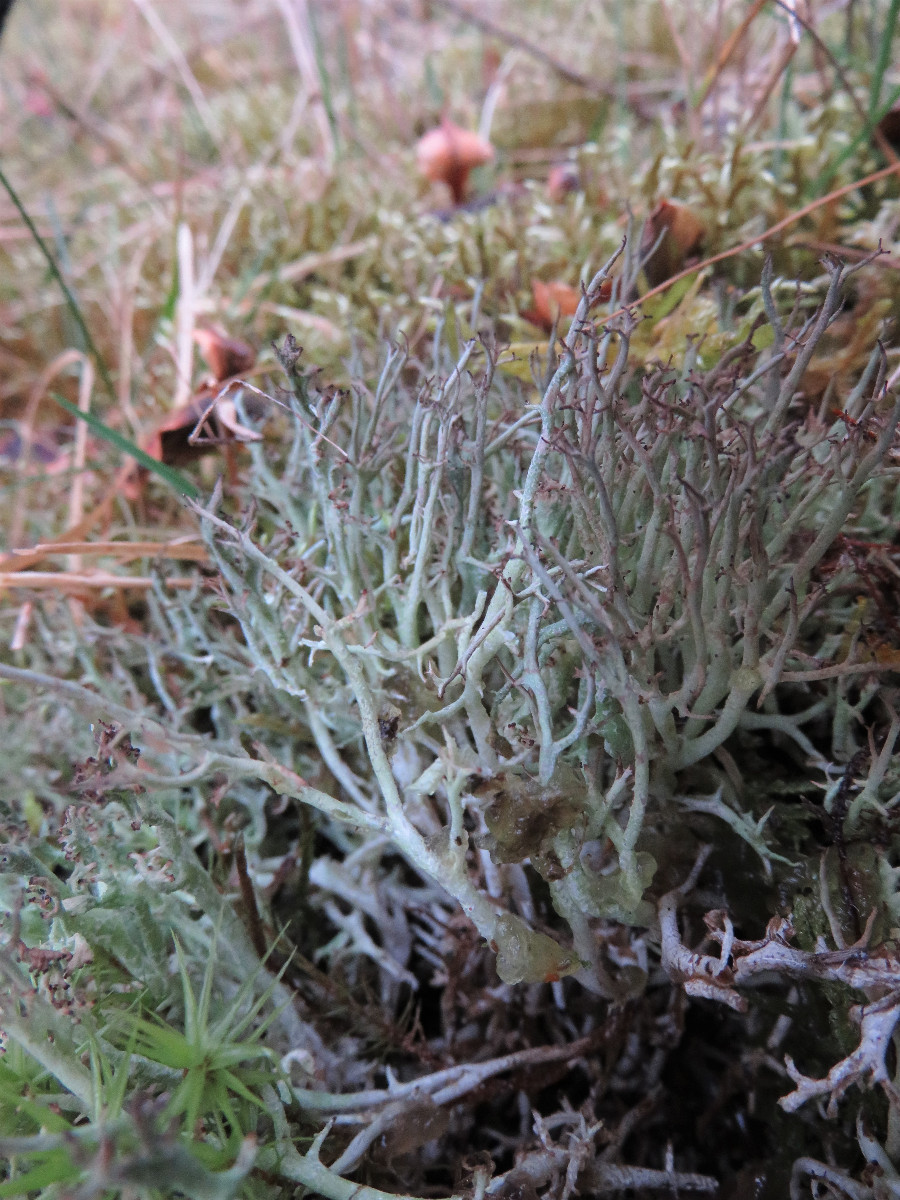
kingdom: Fungi
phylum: Ascomycota
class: Lecanoromycetes
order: Lecanorales
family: Cladoniaceae
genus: Cladonia
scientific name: Cladonia rangiformis
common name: spættet bægerlav
